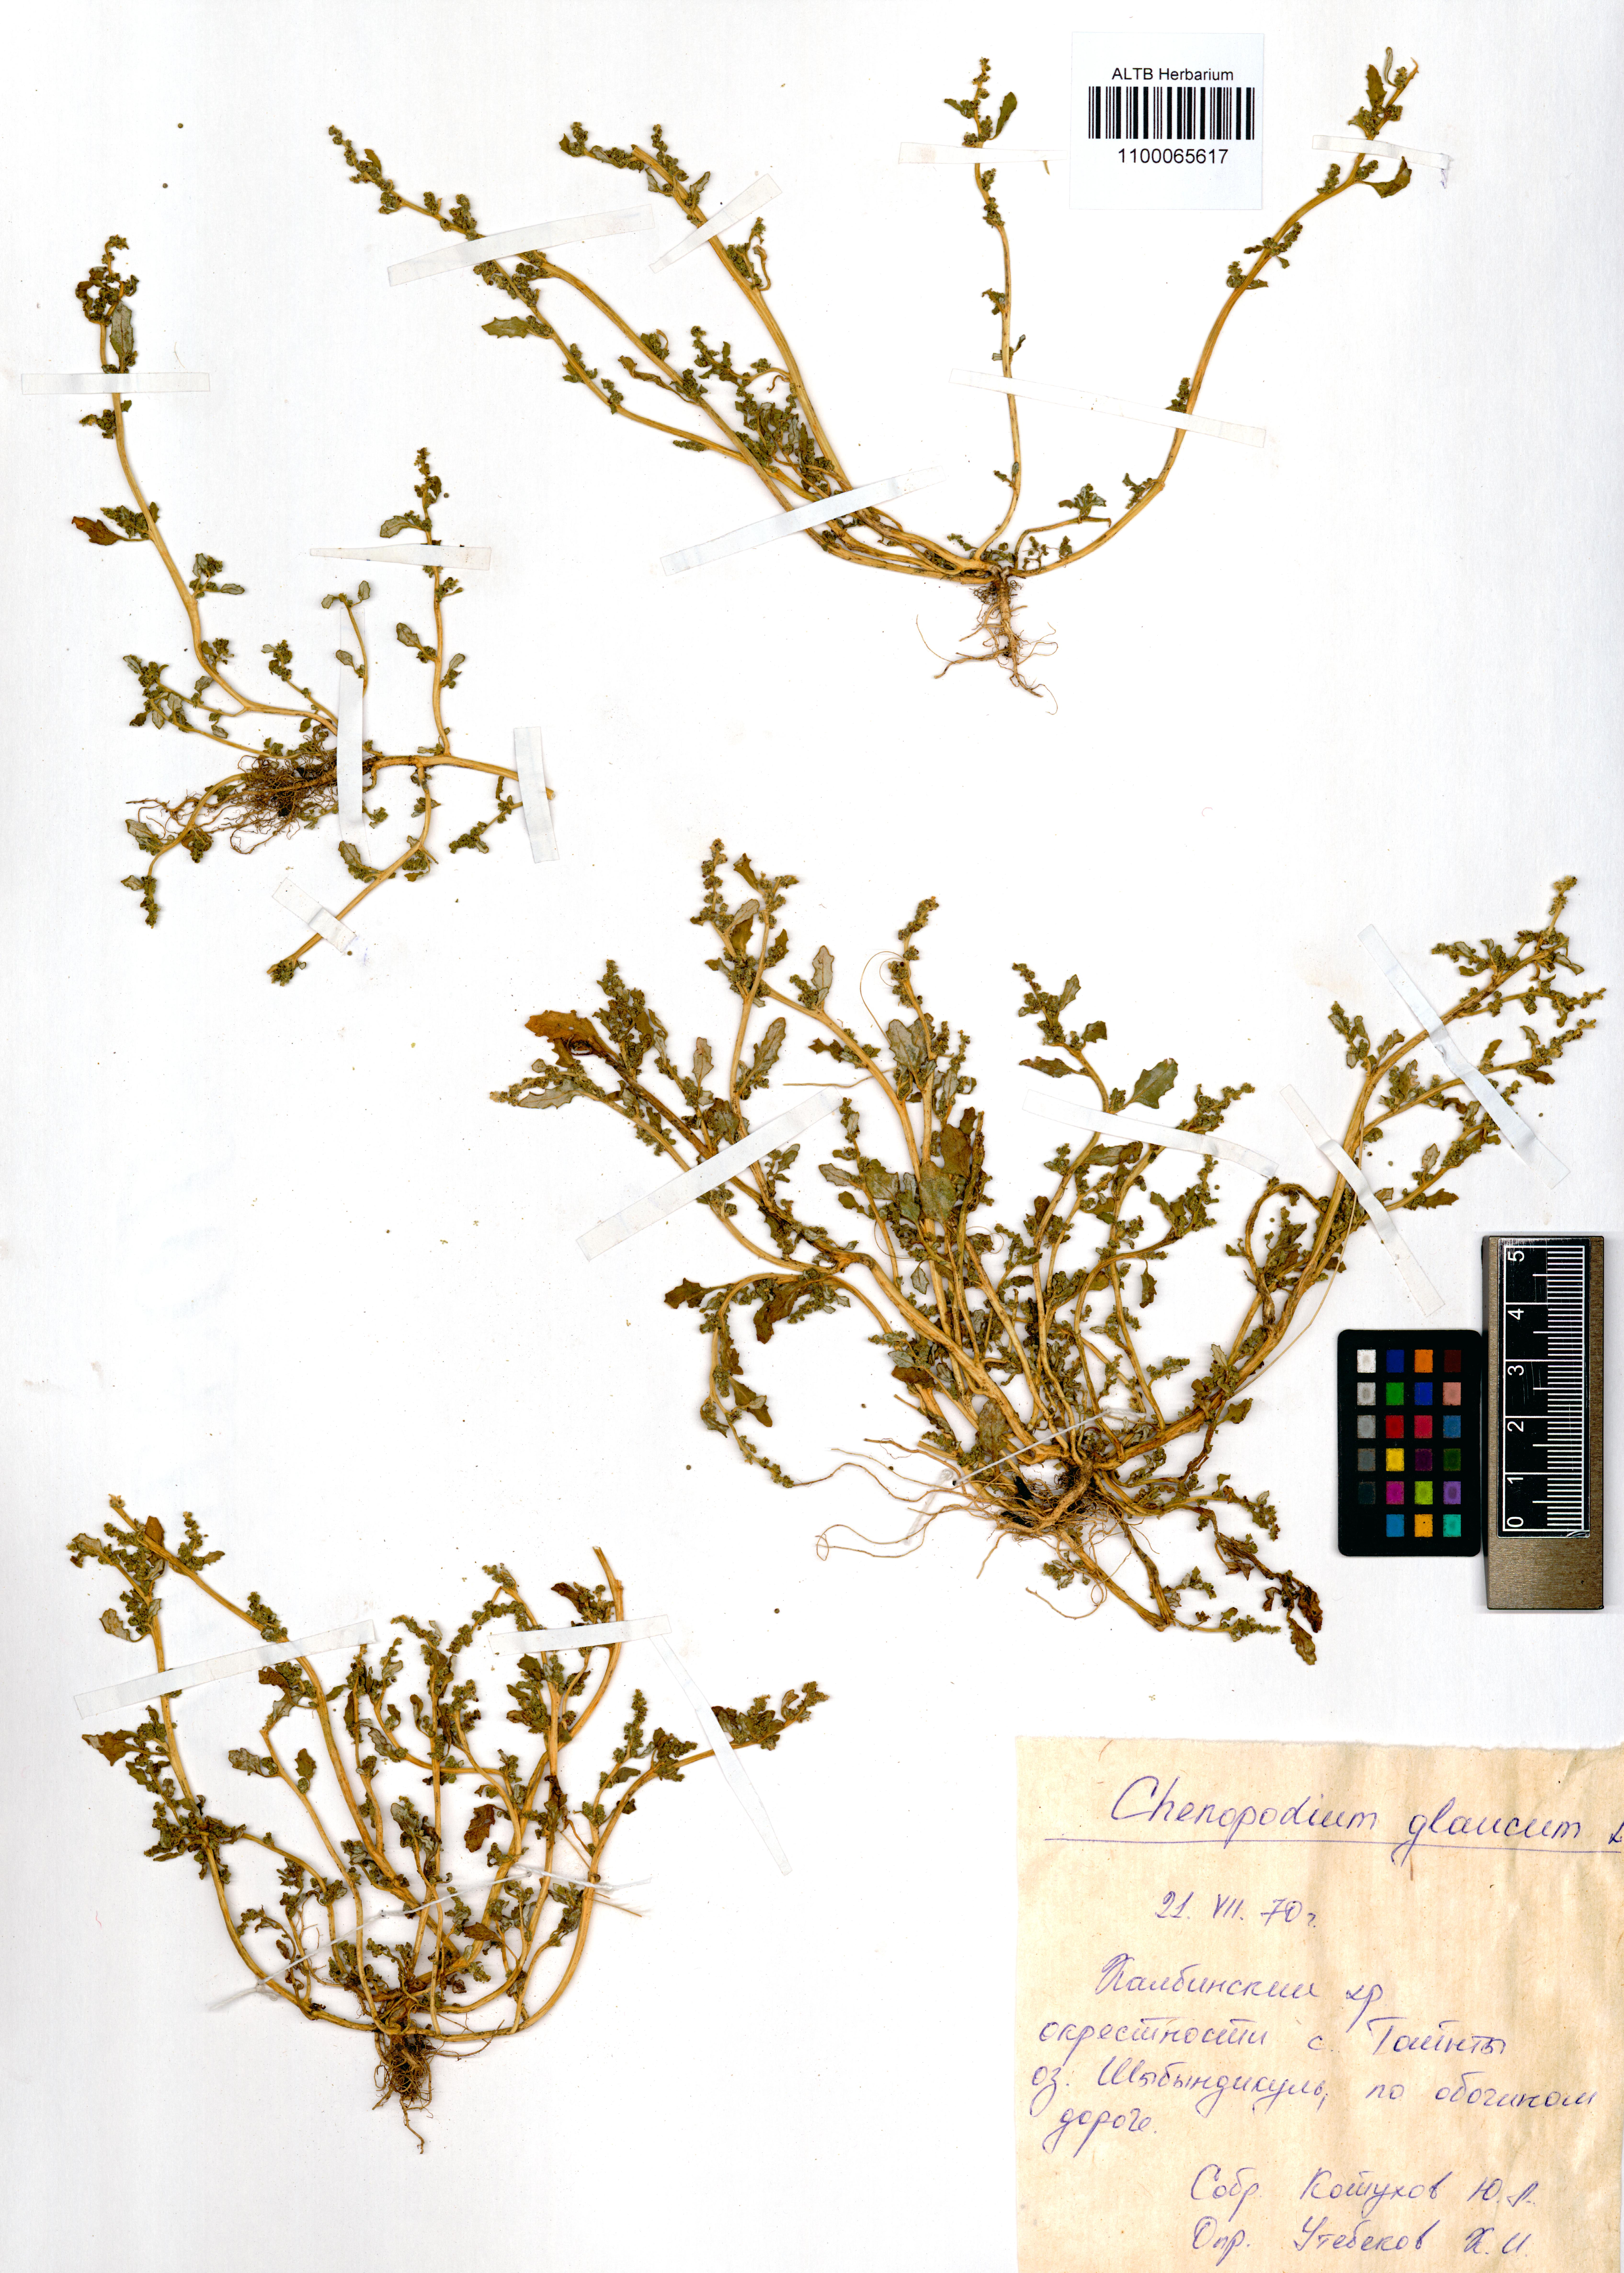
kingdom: Plantae
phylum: Tracheophyta
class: Magnoliopsida
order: Caryophyllales
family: Amaranthaceae
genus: Oxybasis
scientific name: Oxybasis glauca
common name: Glaucous goosefoot
